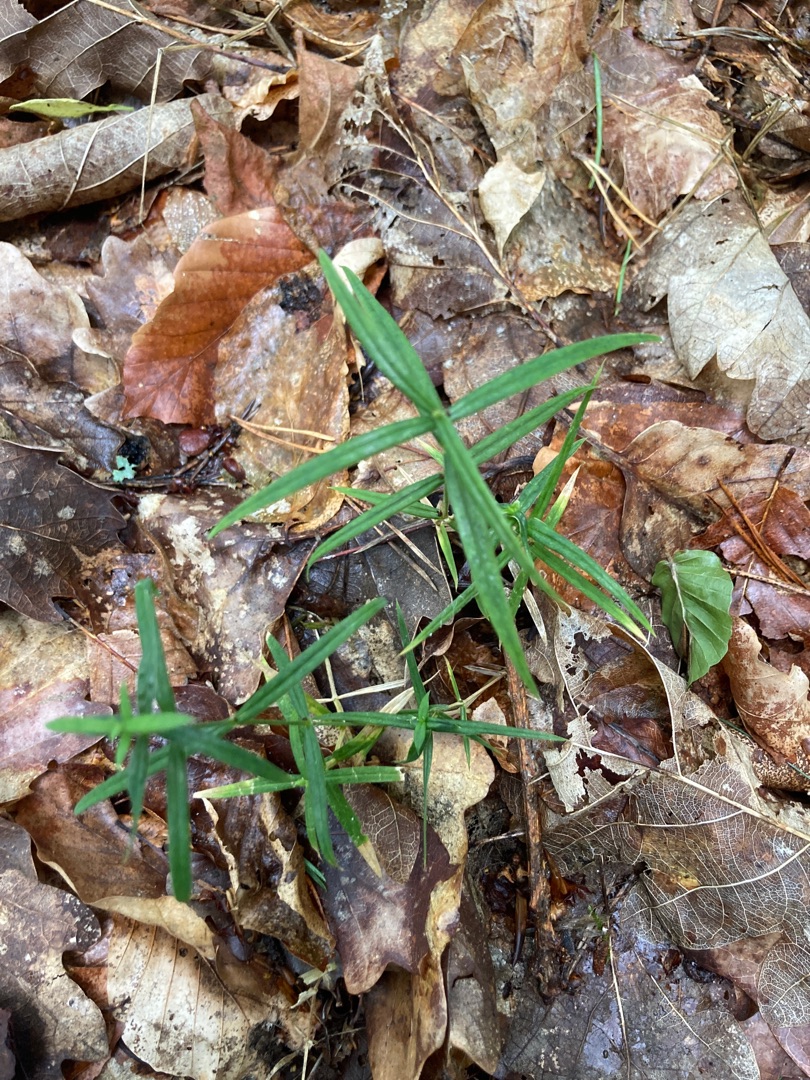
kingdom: Plantae
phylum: Tracheophyta
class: Magnoliopsida
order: Caryophyllales
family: Caryophyllaceae
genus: Rabelera
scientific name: Rabelera holostea
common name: Stor fladstjerne
